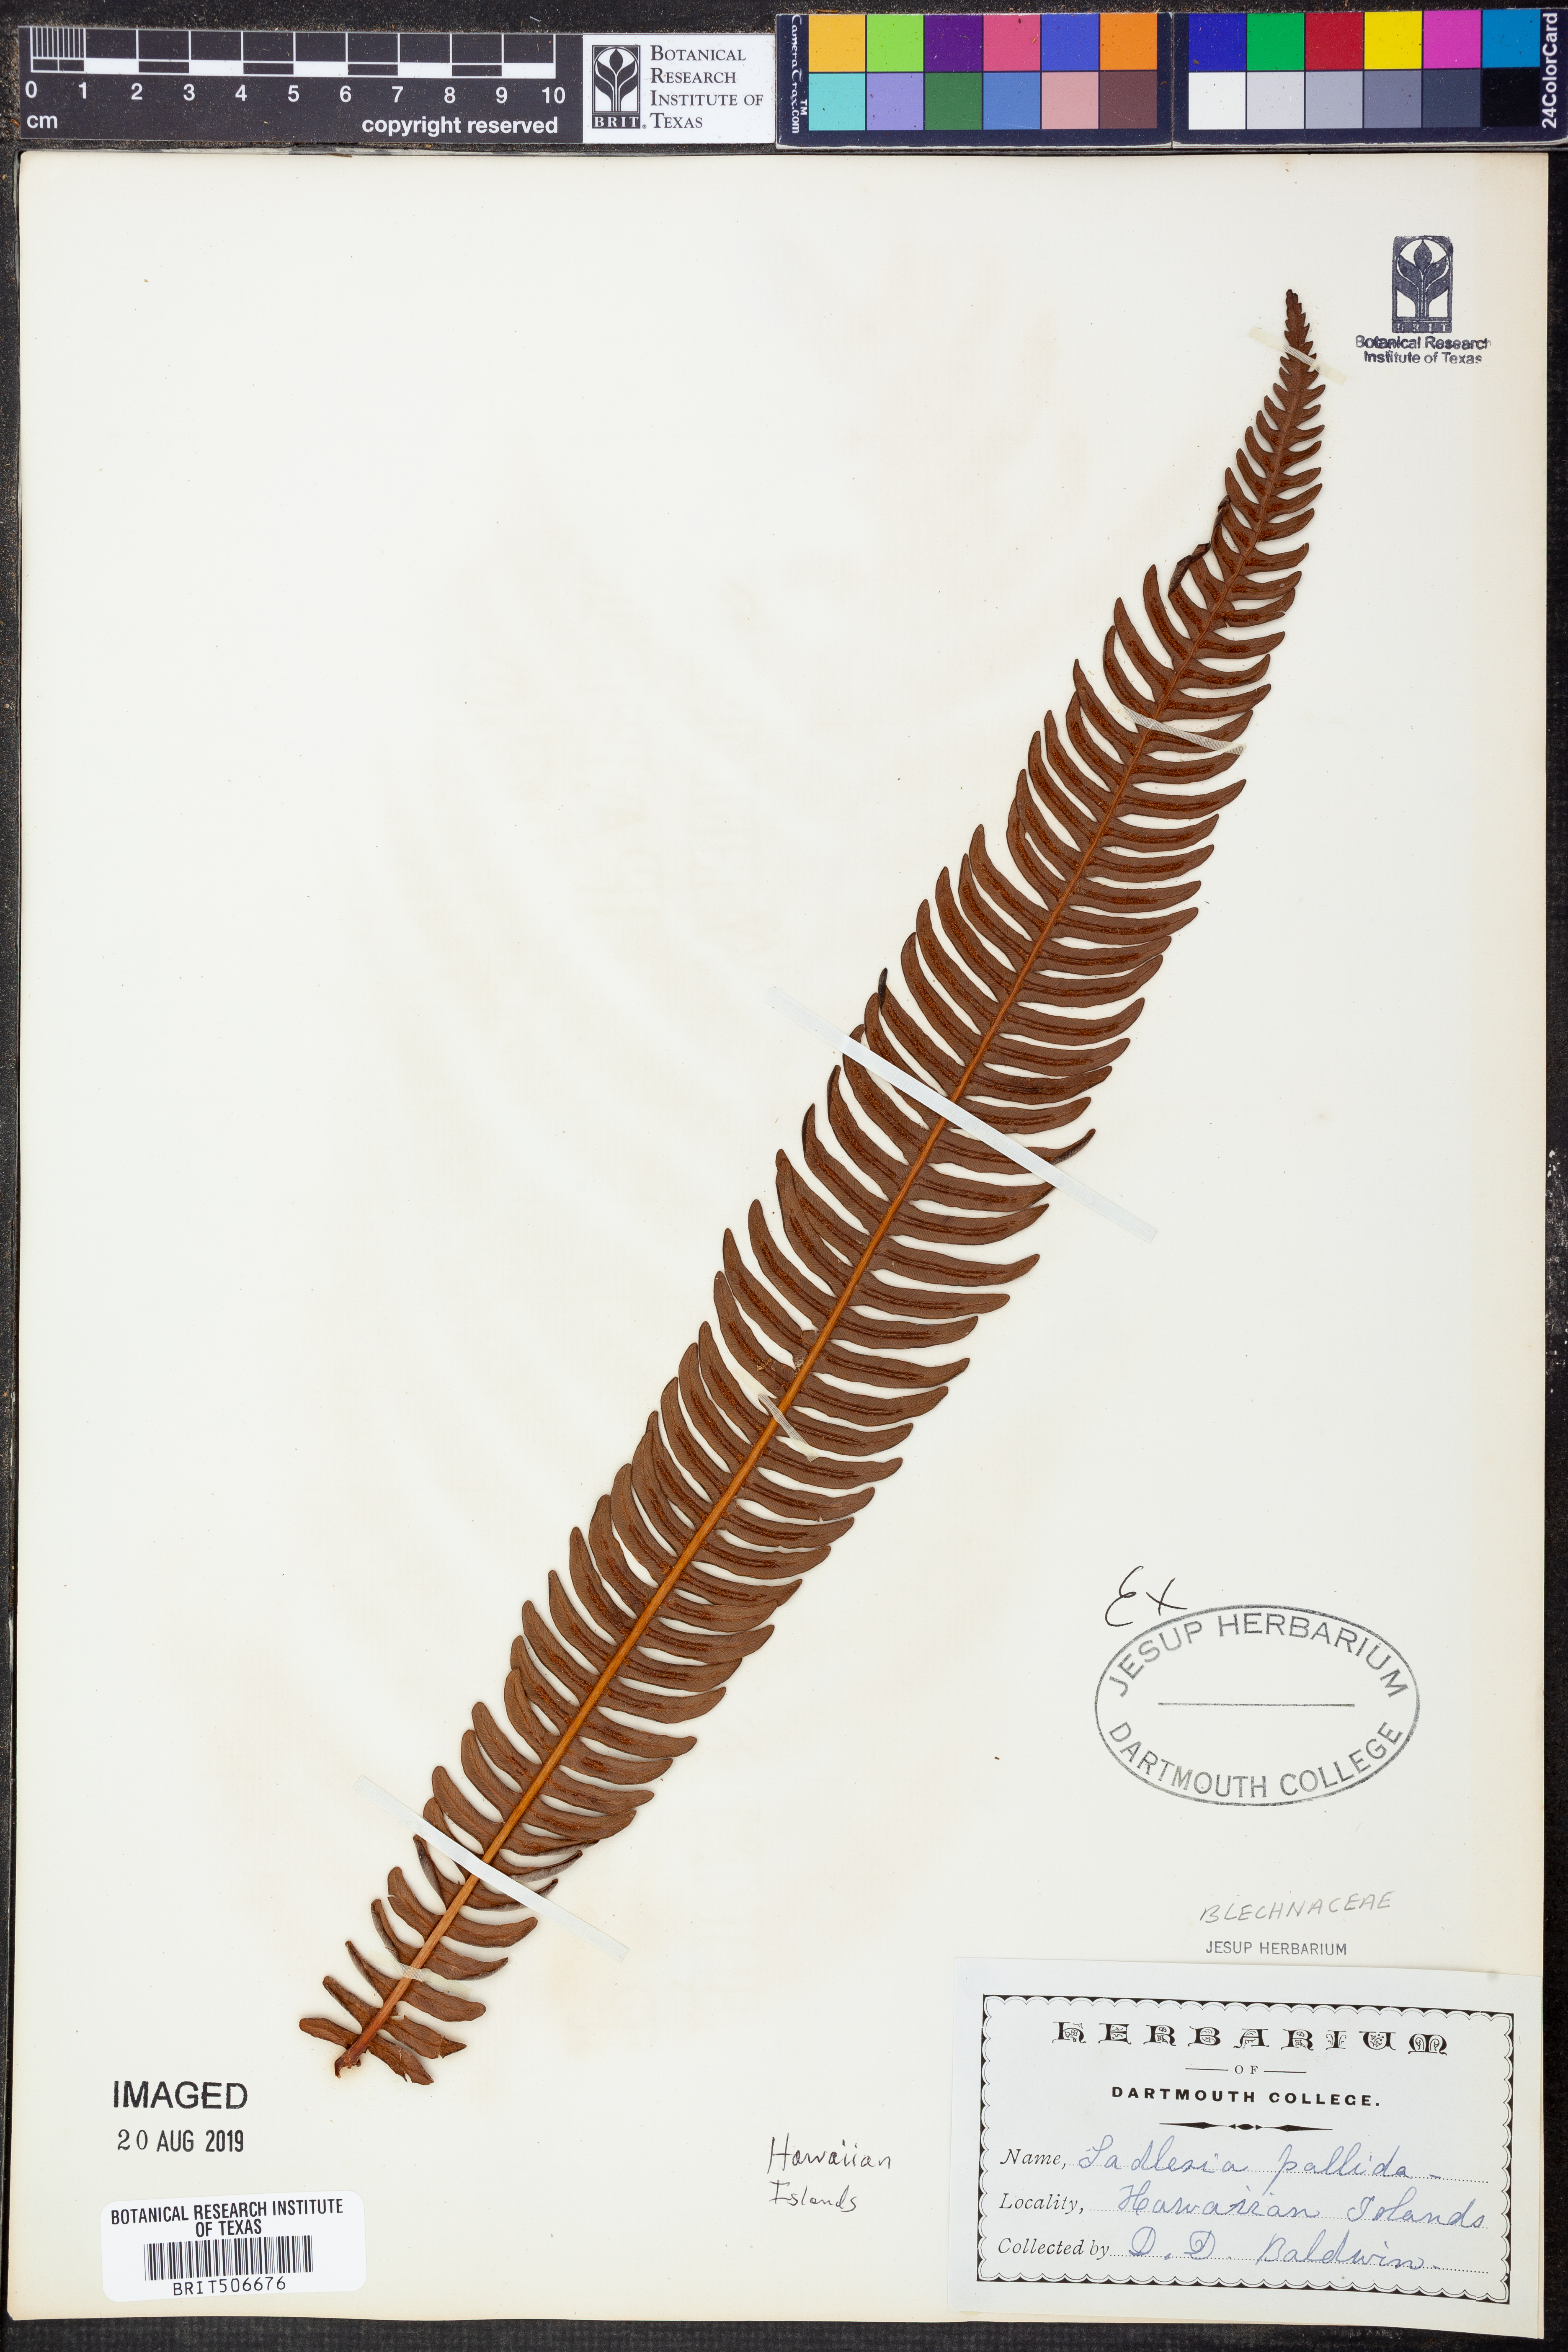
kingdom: Plantae
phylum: Tracheophyta
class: Polypodiopsida
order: Polypodiales
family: Blechnaceae
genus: Sadleria
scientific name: Sadleria pallida
